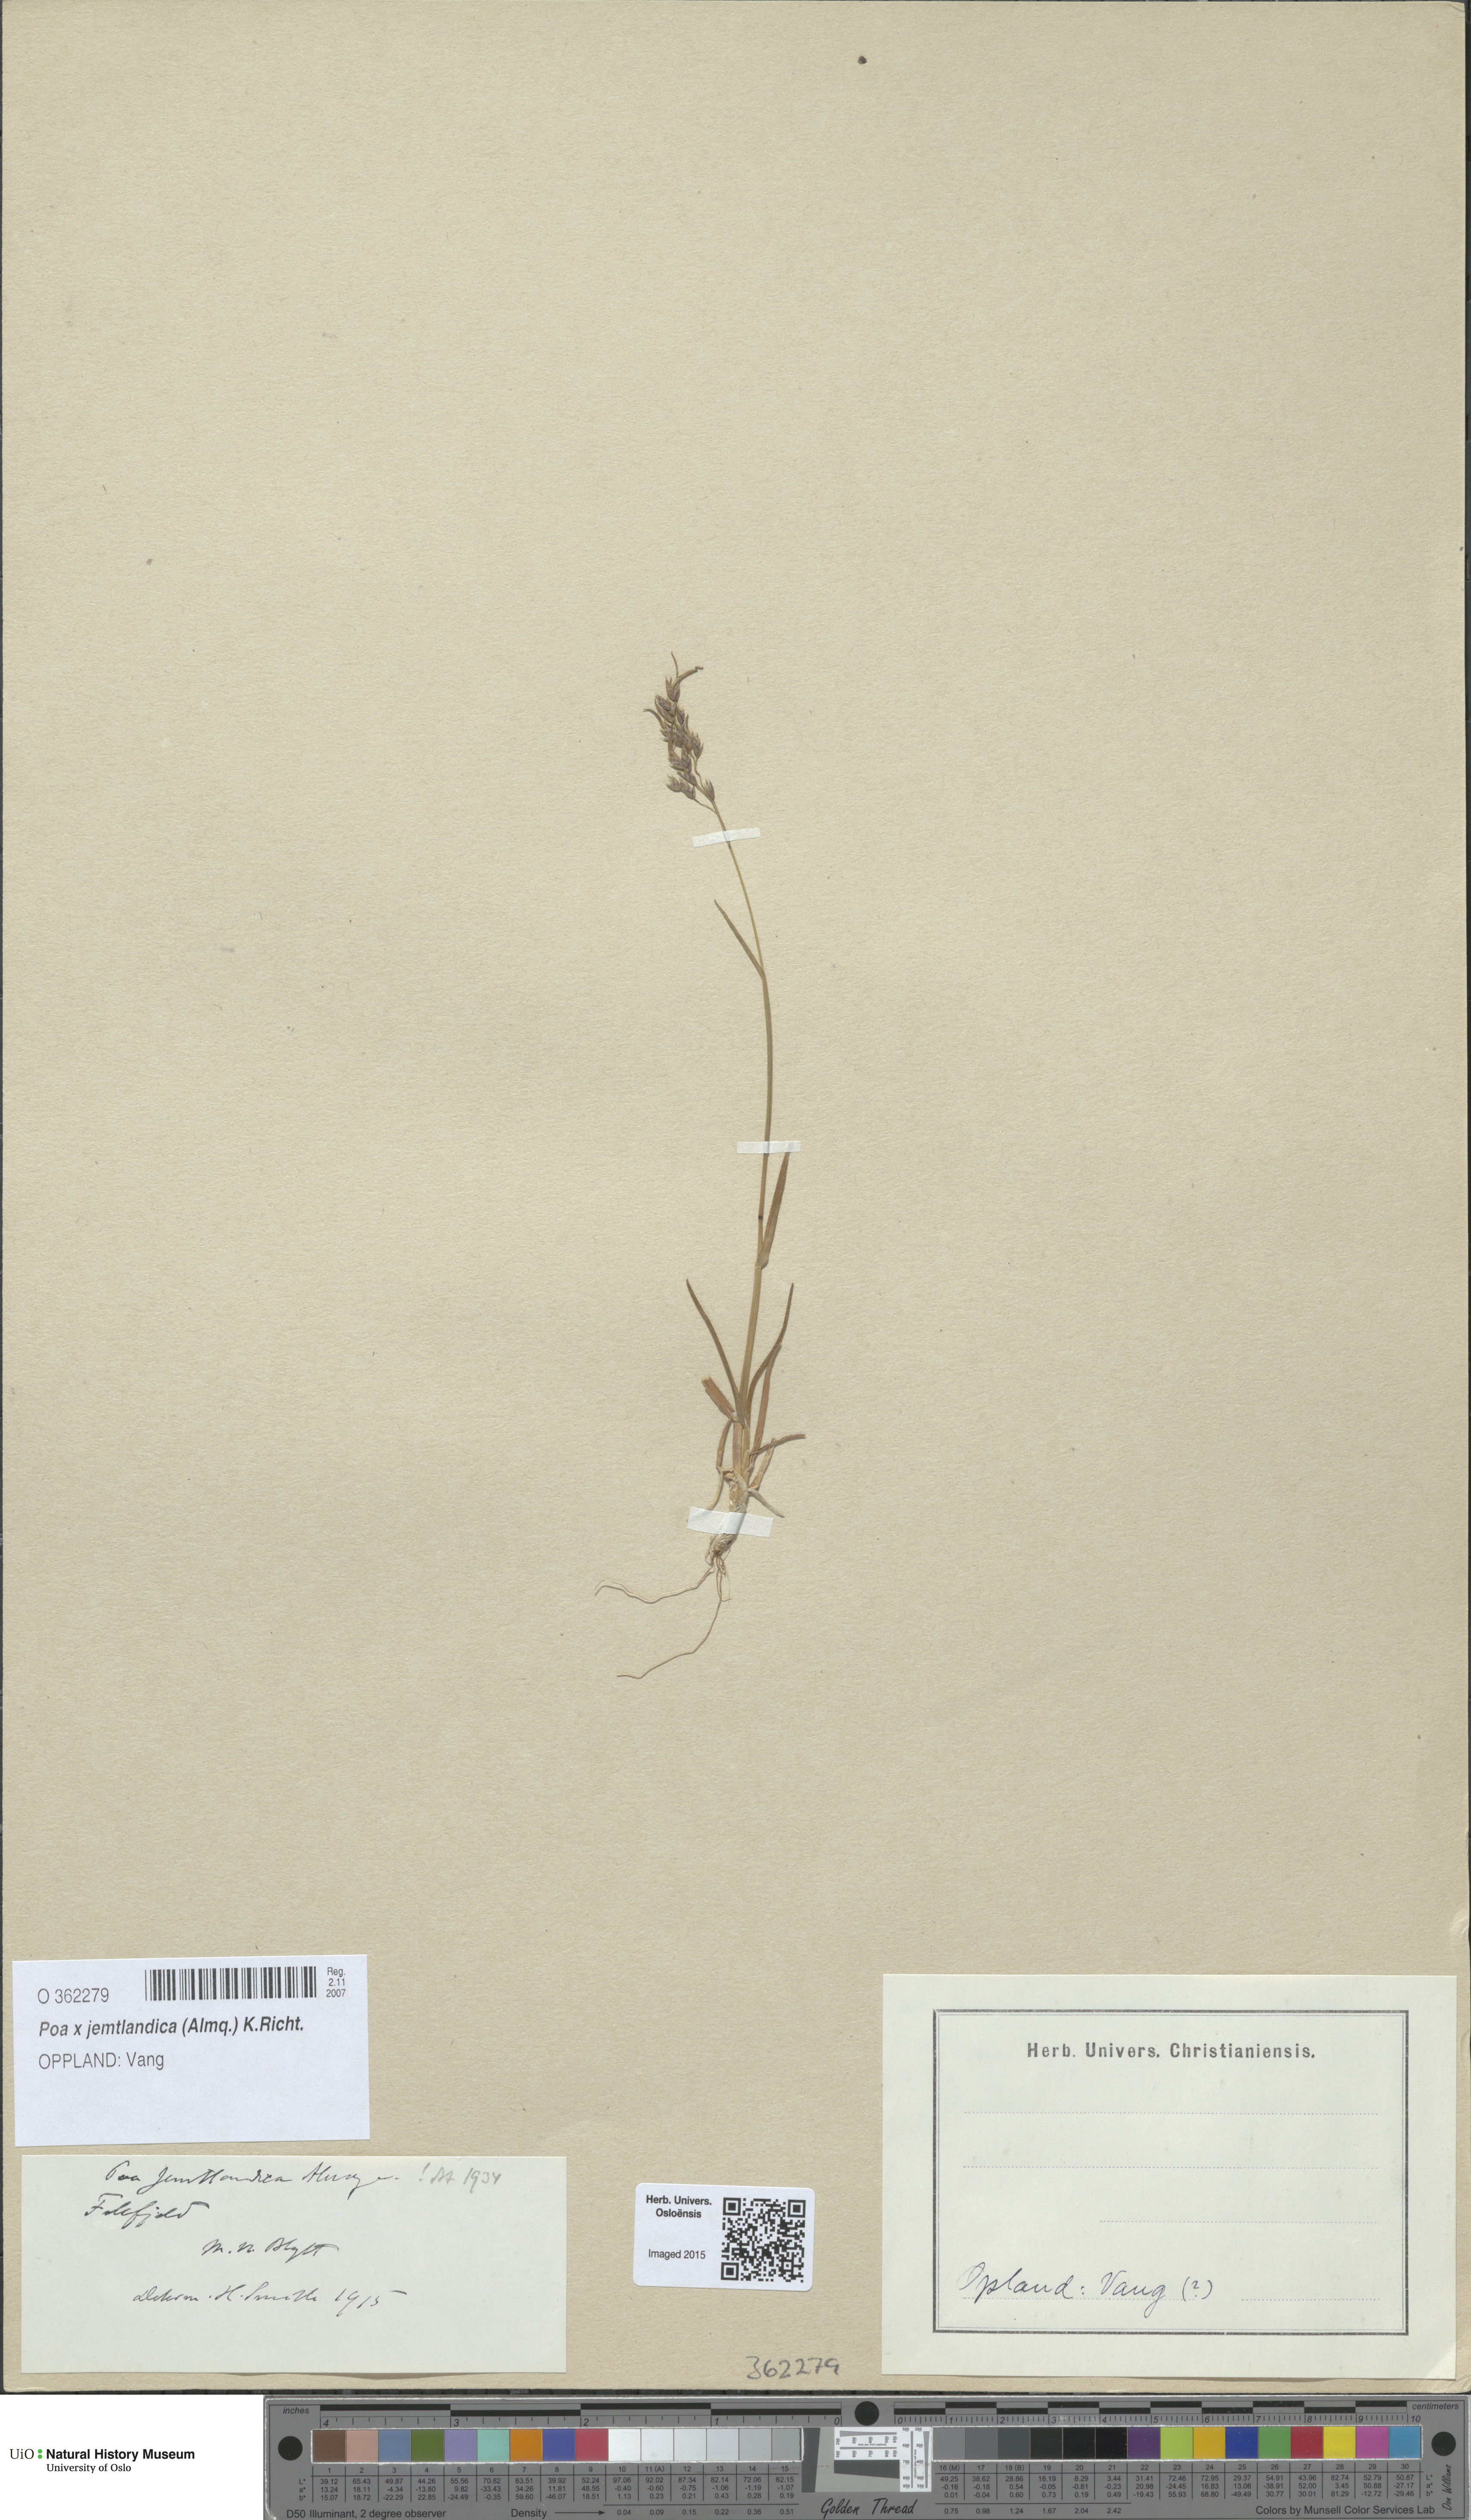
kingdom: Plantae
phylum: Tracheophyta
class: Liliopsida
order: Poales
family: Poaceae
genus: Poa
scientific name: Poa jemtlandica
